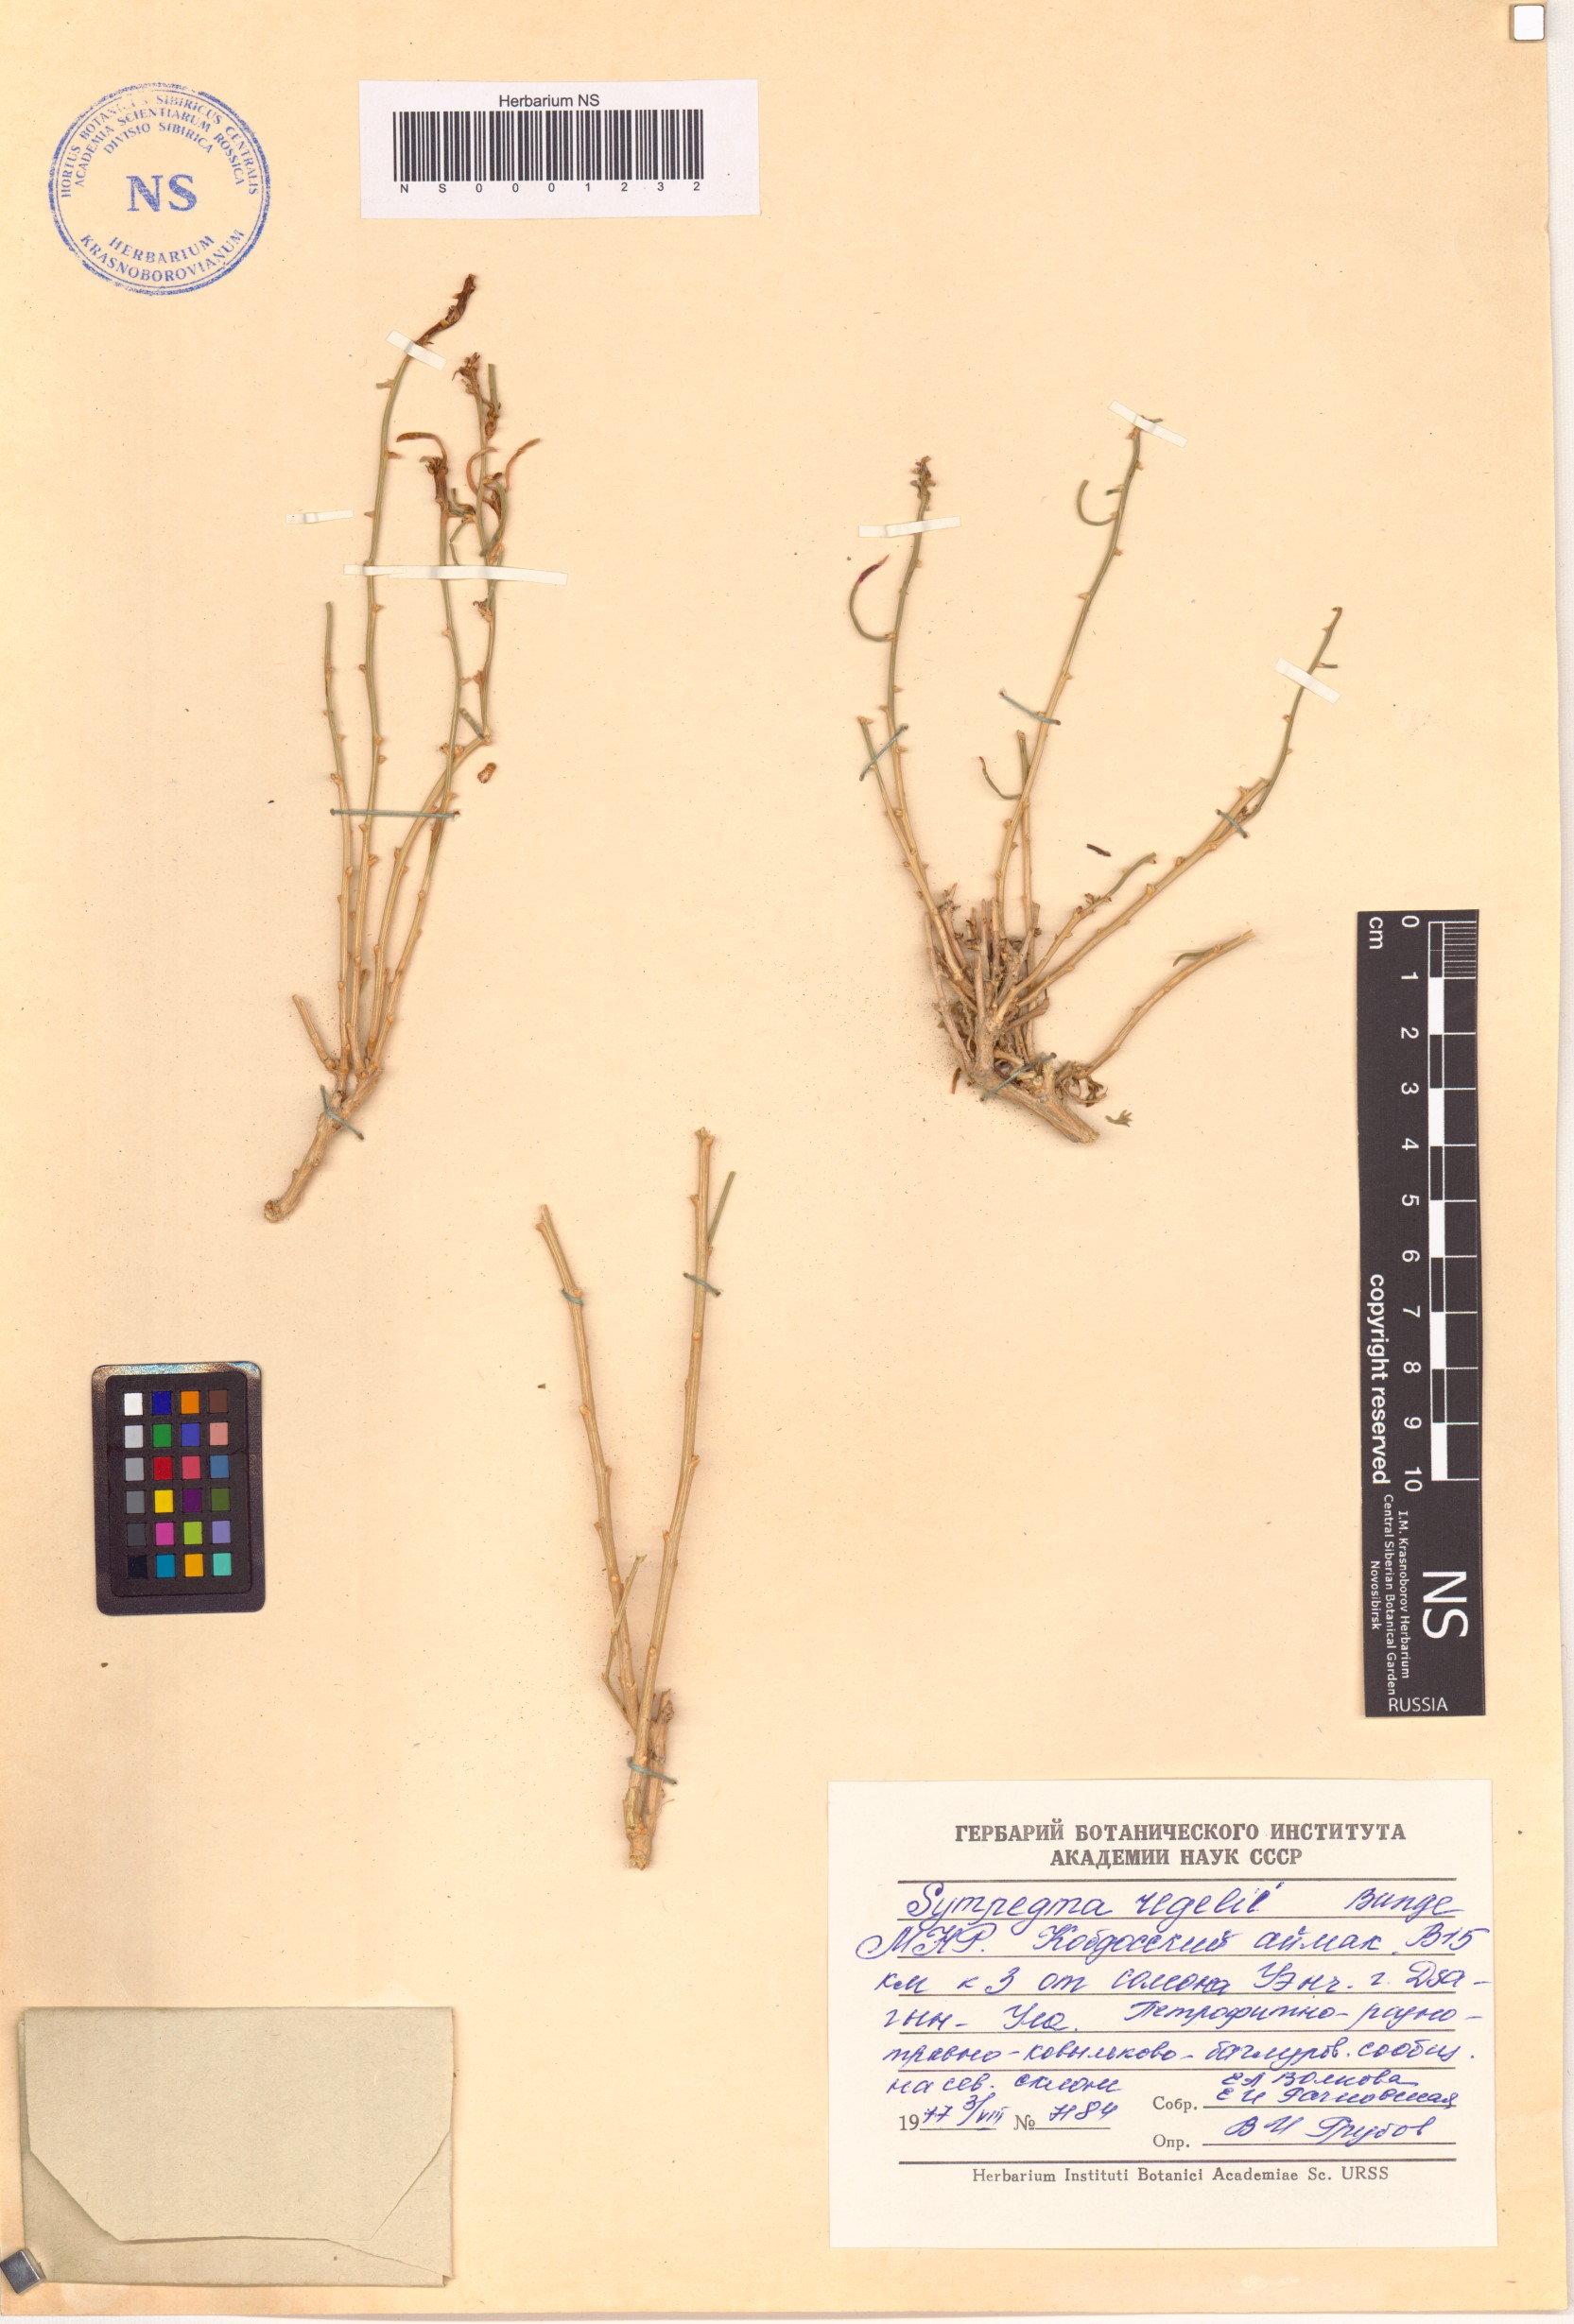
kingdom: Plantae
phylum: Tracheophyta
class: Magnoliopsida
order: Caryophyllales
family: Amaranthaceae
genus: Sympegma
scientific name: Sympegma regelii
